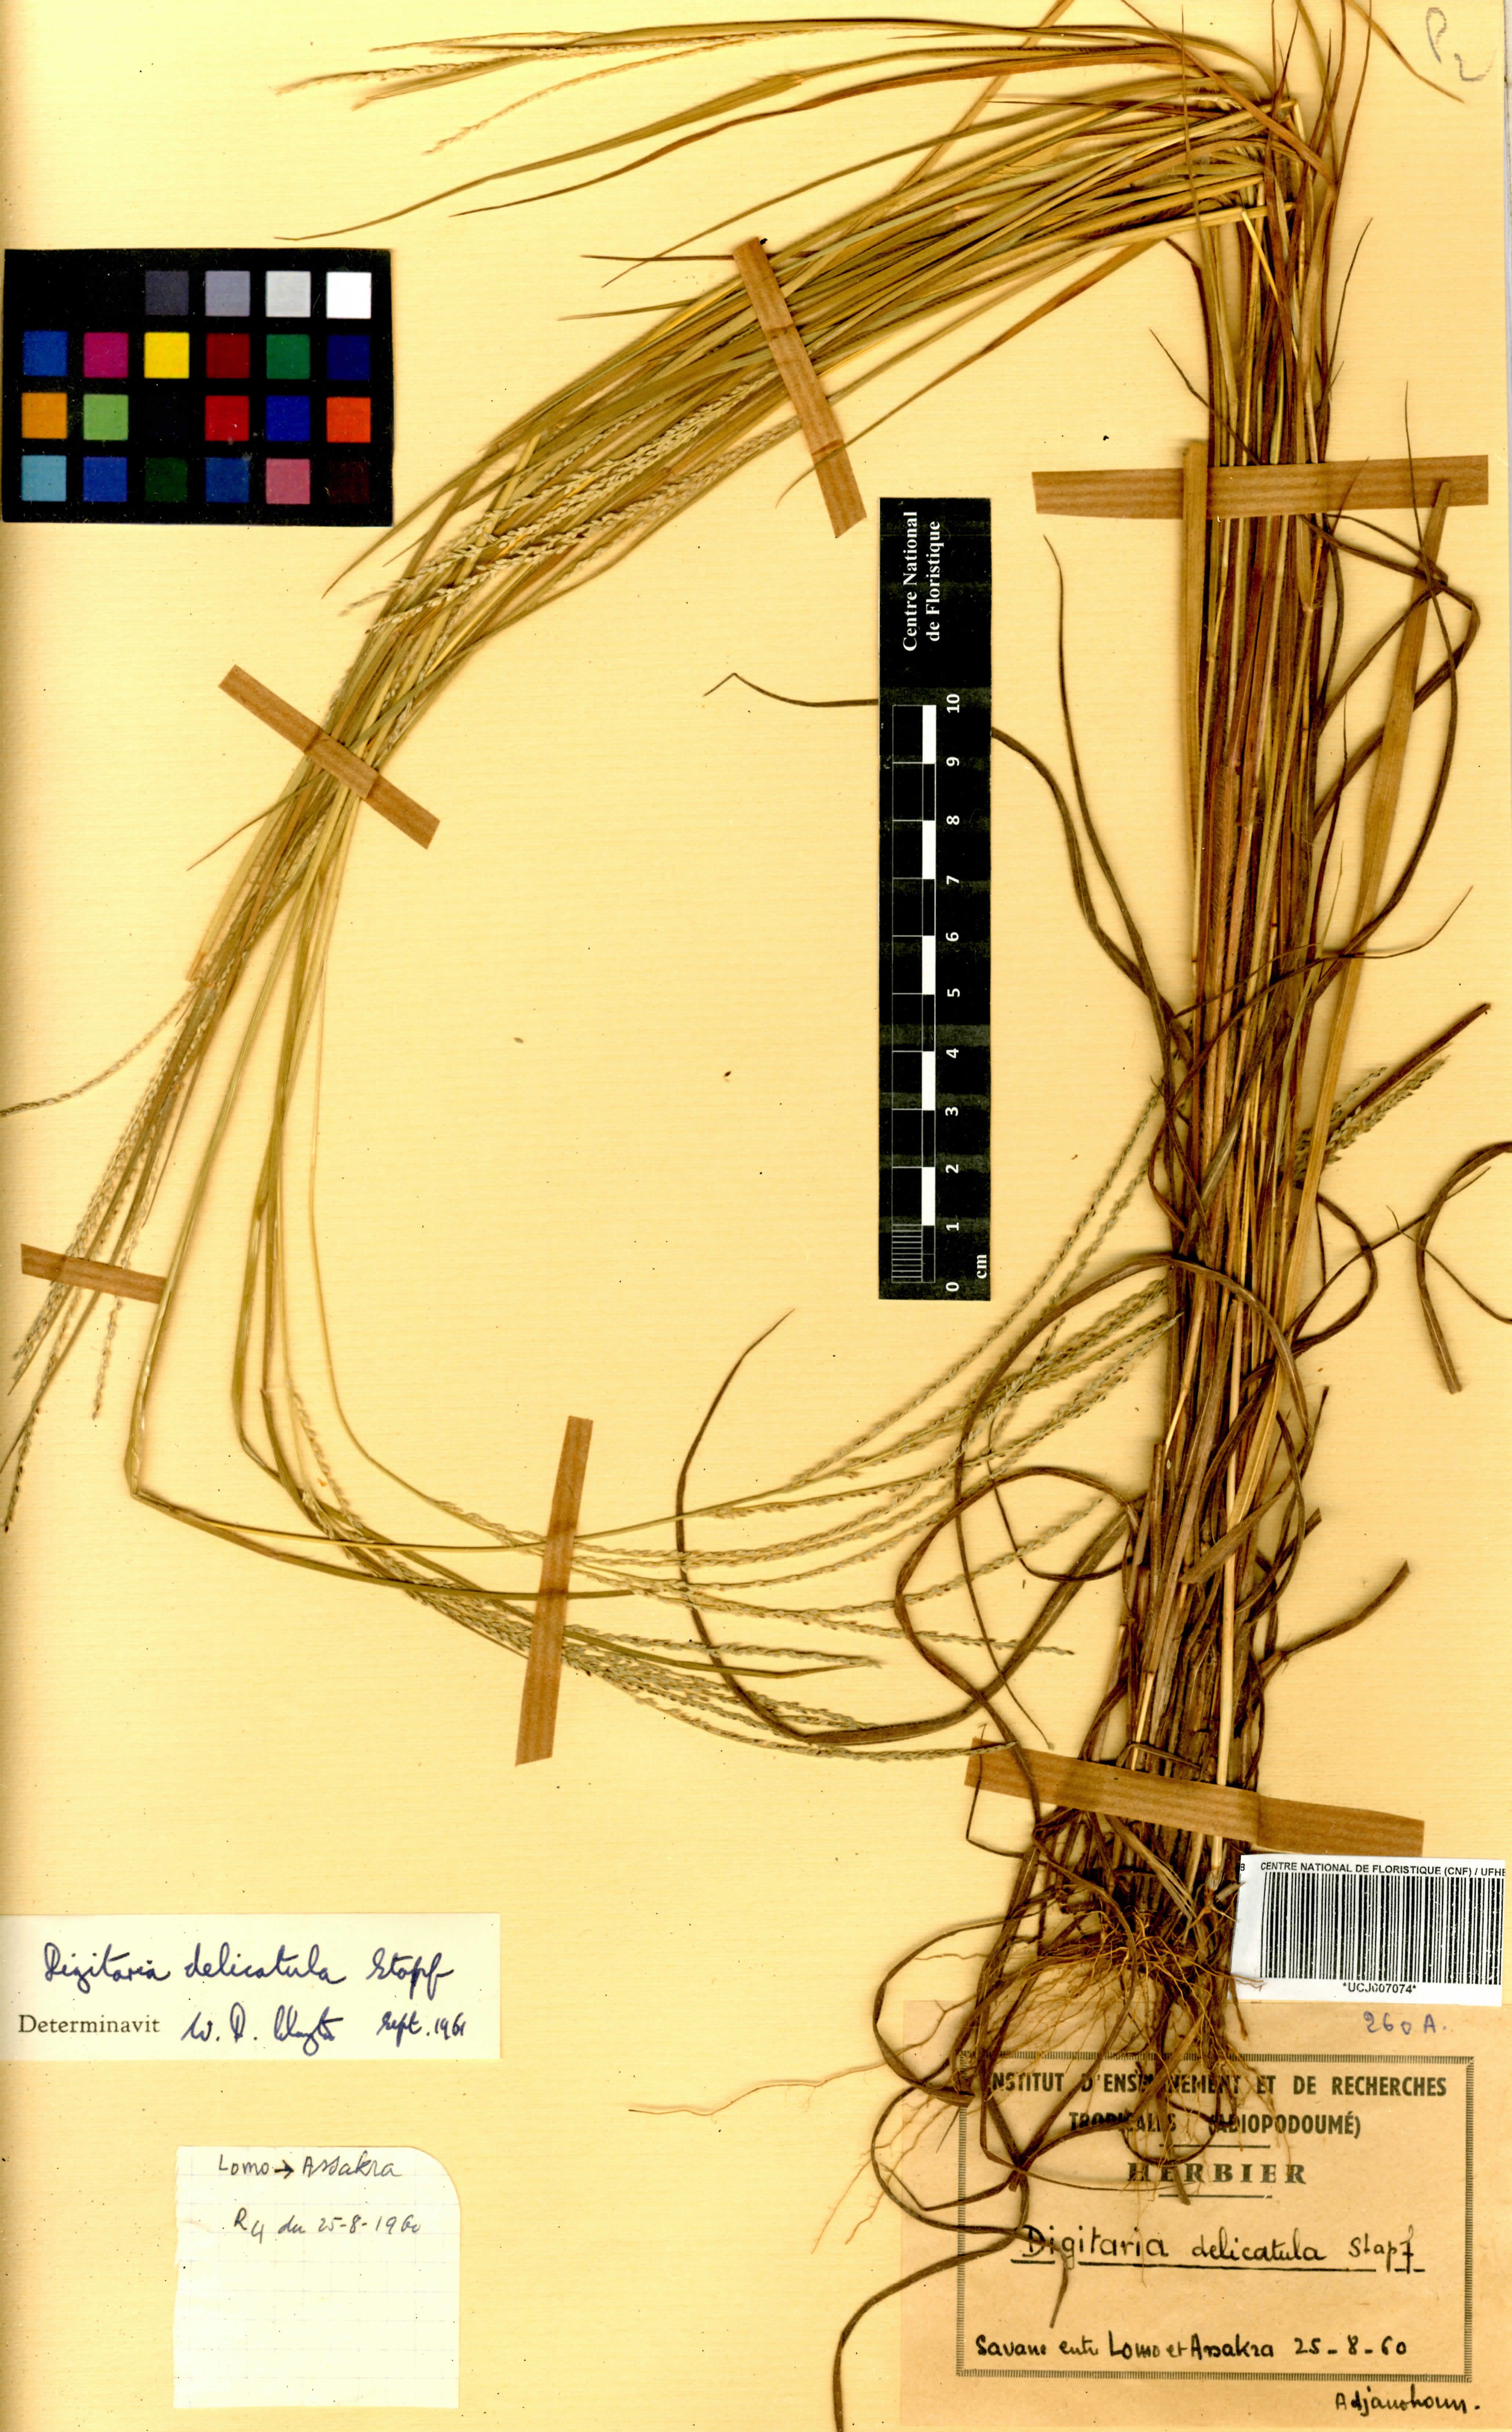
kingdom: Plantae
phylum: Tracheophyta
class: Liliopsida
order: Poales
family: Poaceae
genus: Digitaria
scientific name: Digitaria delicatula
